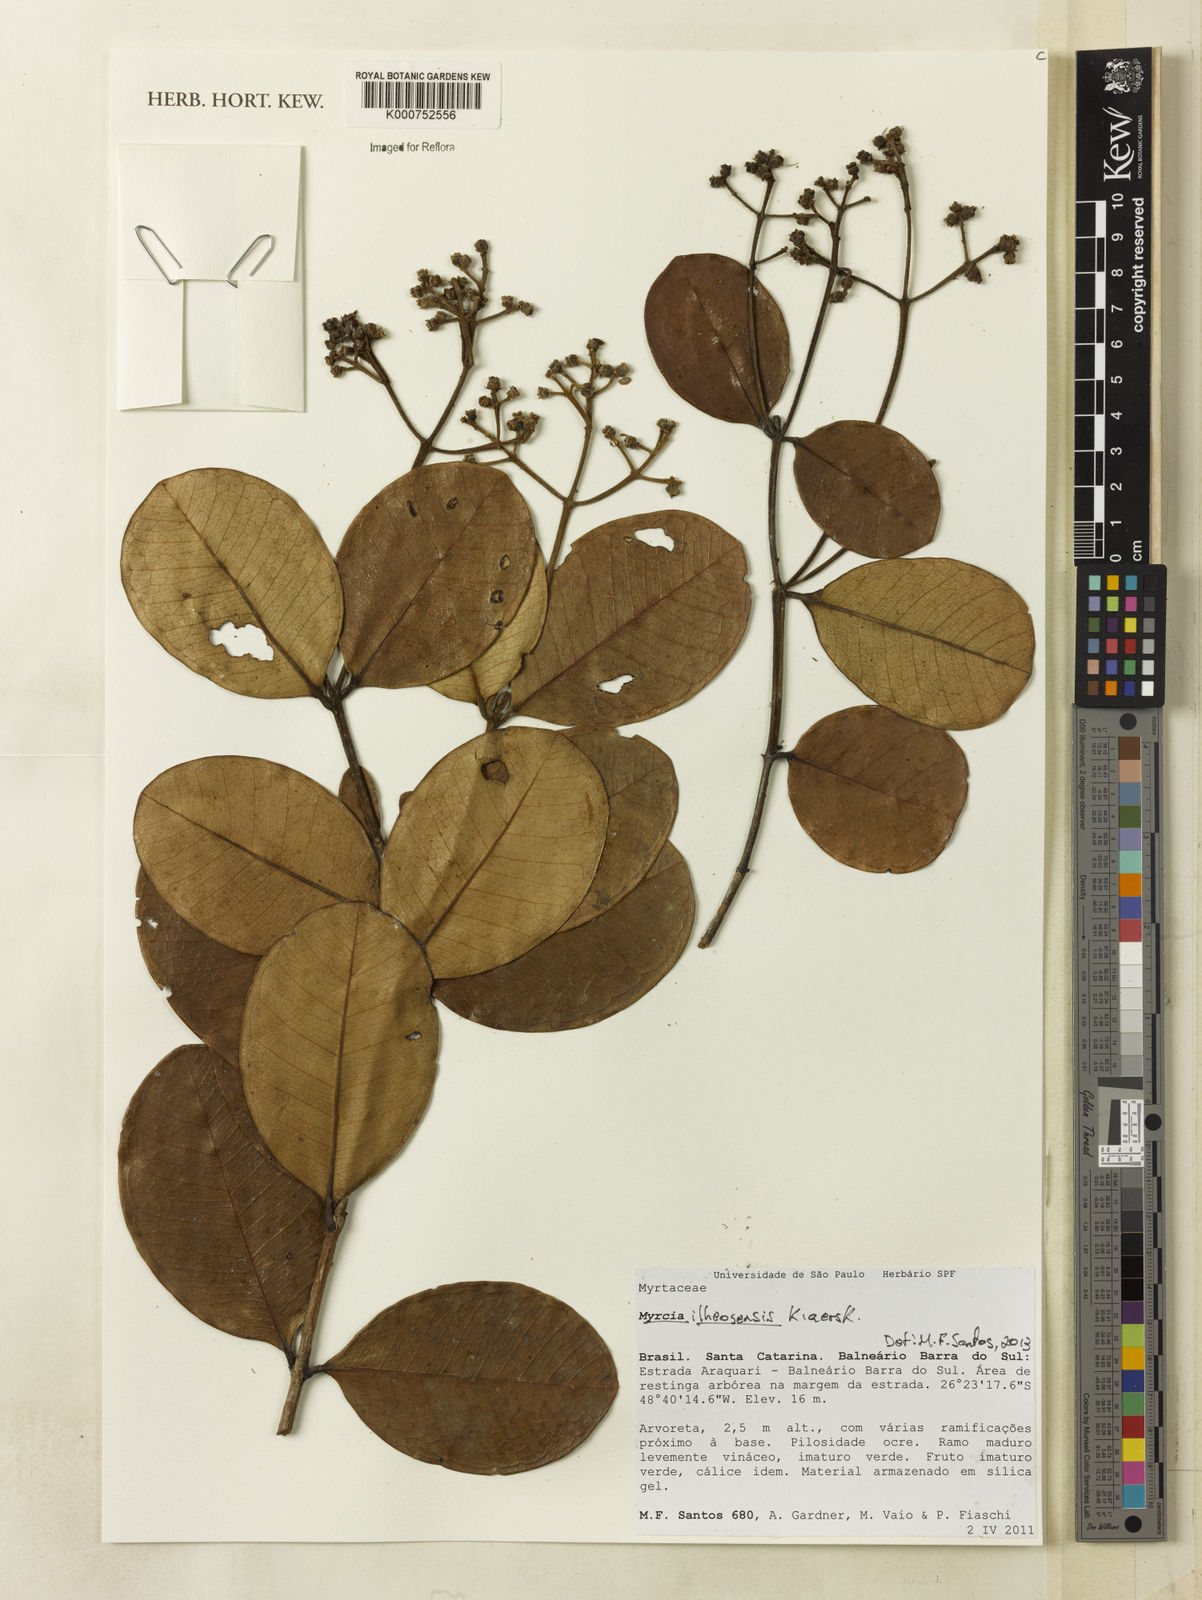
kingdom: Plantae
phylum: Tracheophyta
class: Magnoliopsida
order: Myrtales
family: Myrtaceae
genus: Myrcia
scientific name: Myrcia ilheosensis
